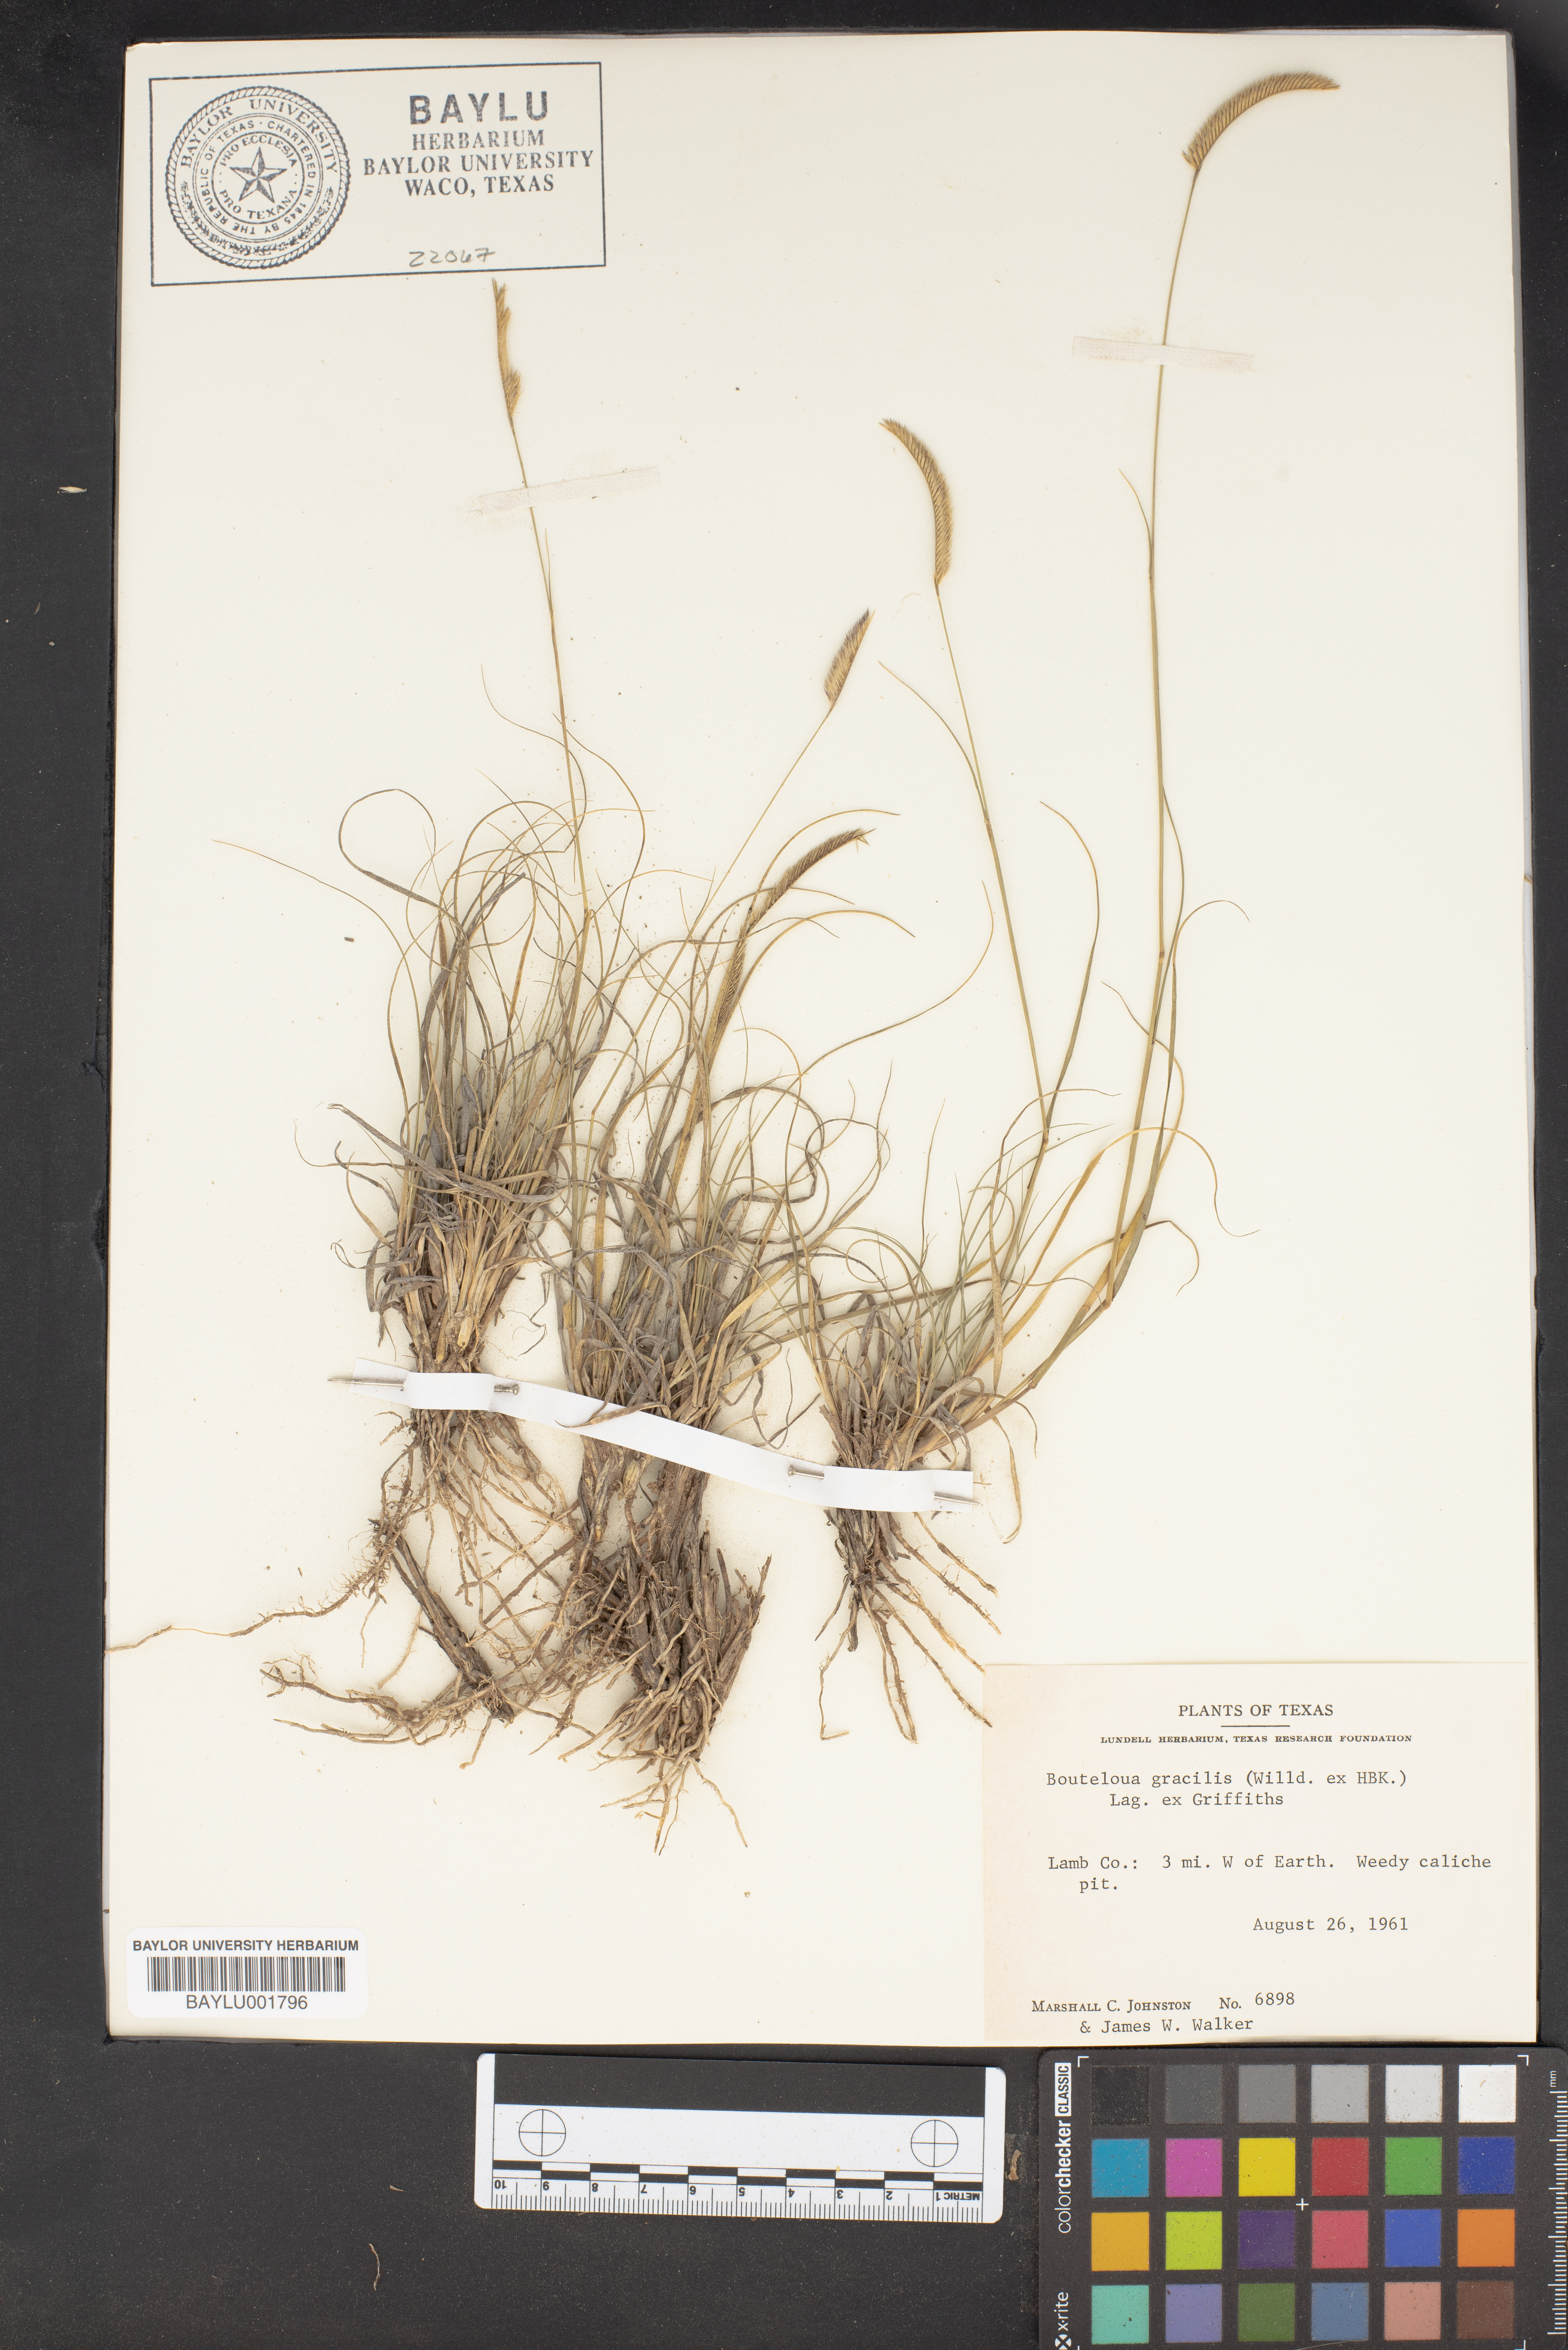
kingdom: Plantae
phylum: Tracheophyta
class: Liliopsida
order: Poales
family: Poaceae
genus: Bouteloua
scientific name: Bouteloua gracilis
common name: Blue grama
